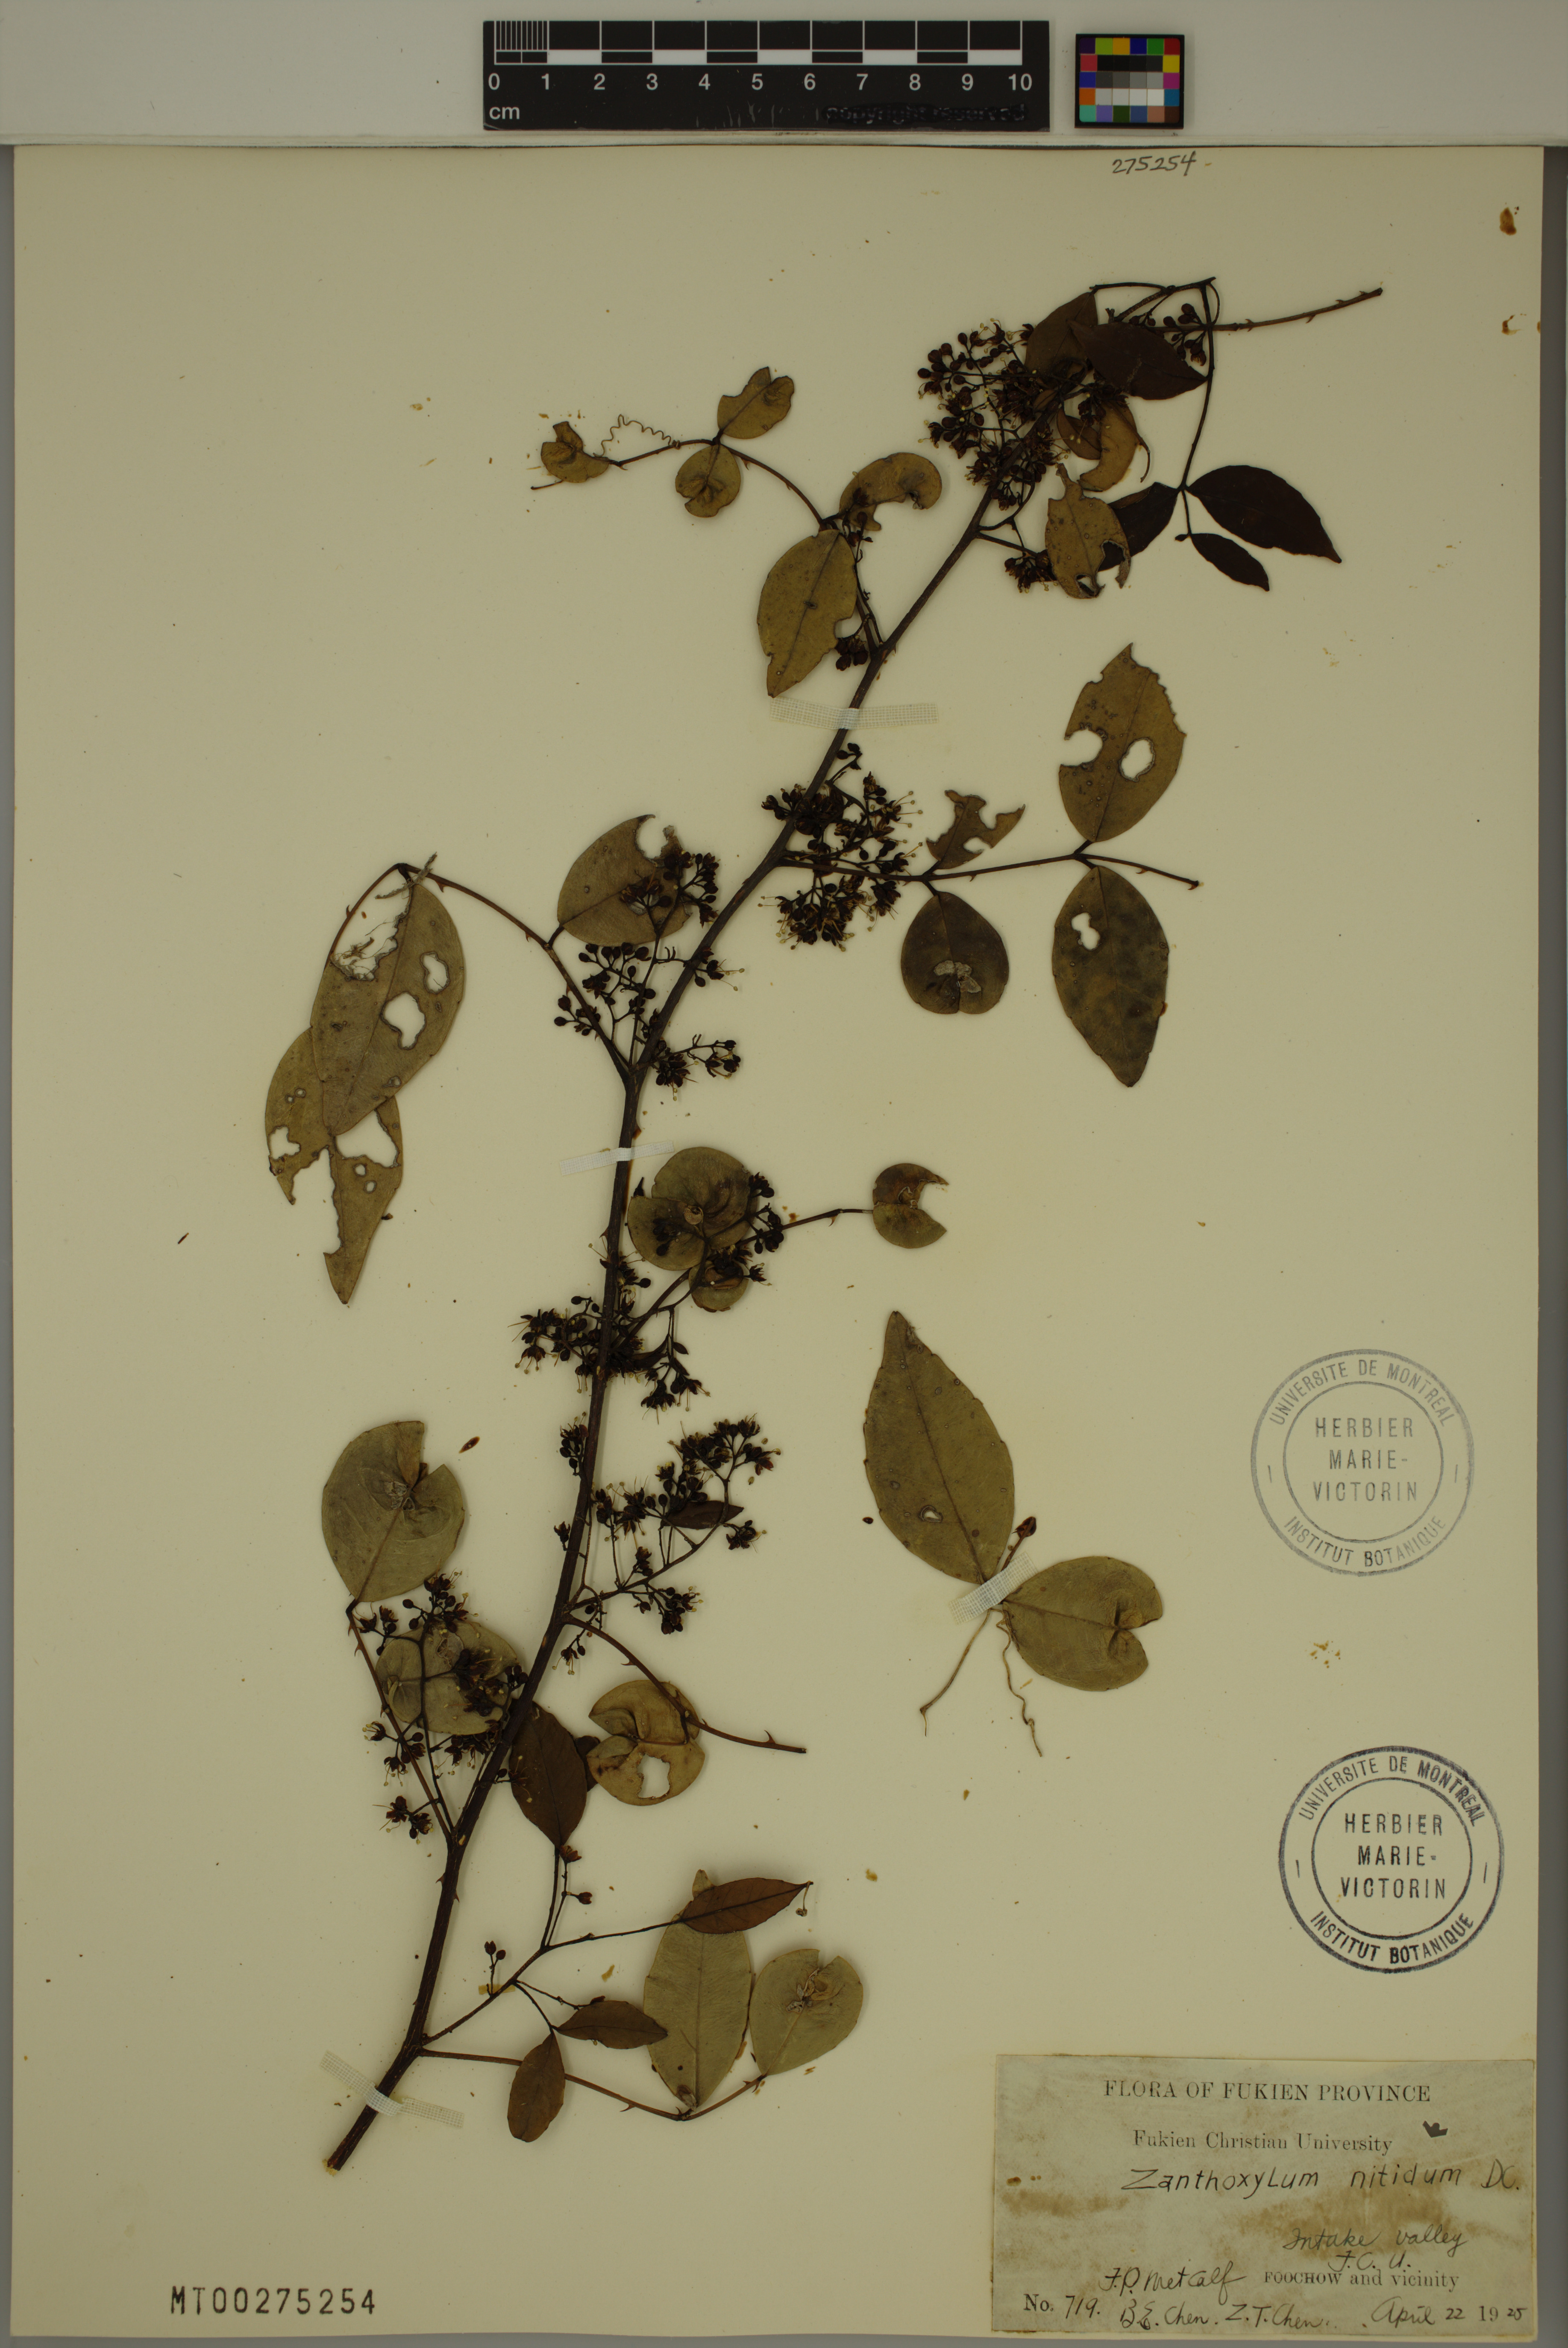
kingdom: Plantae
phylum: Tracheophyta
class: Magnoliopsida
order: Sapindales
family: Rutaceae
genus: Zanthoxylum
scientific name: Zanthoxylum nitidum
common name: Shiny-leaf prickly-ash
